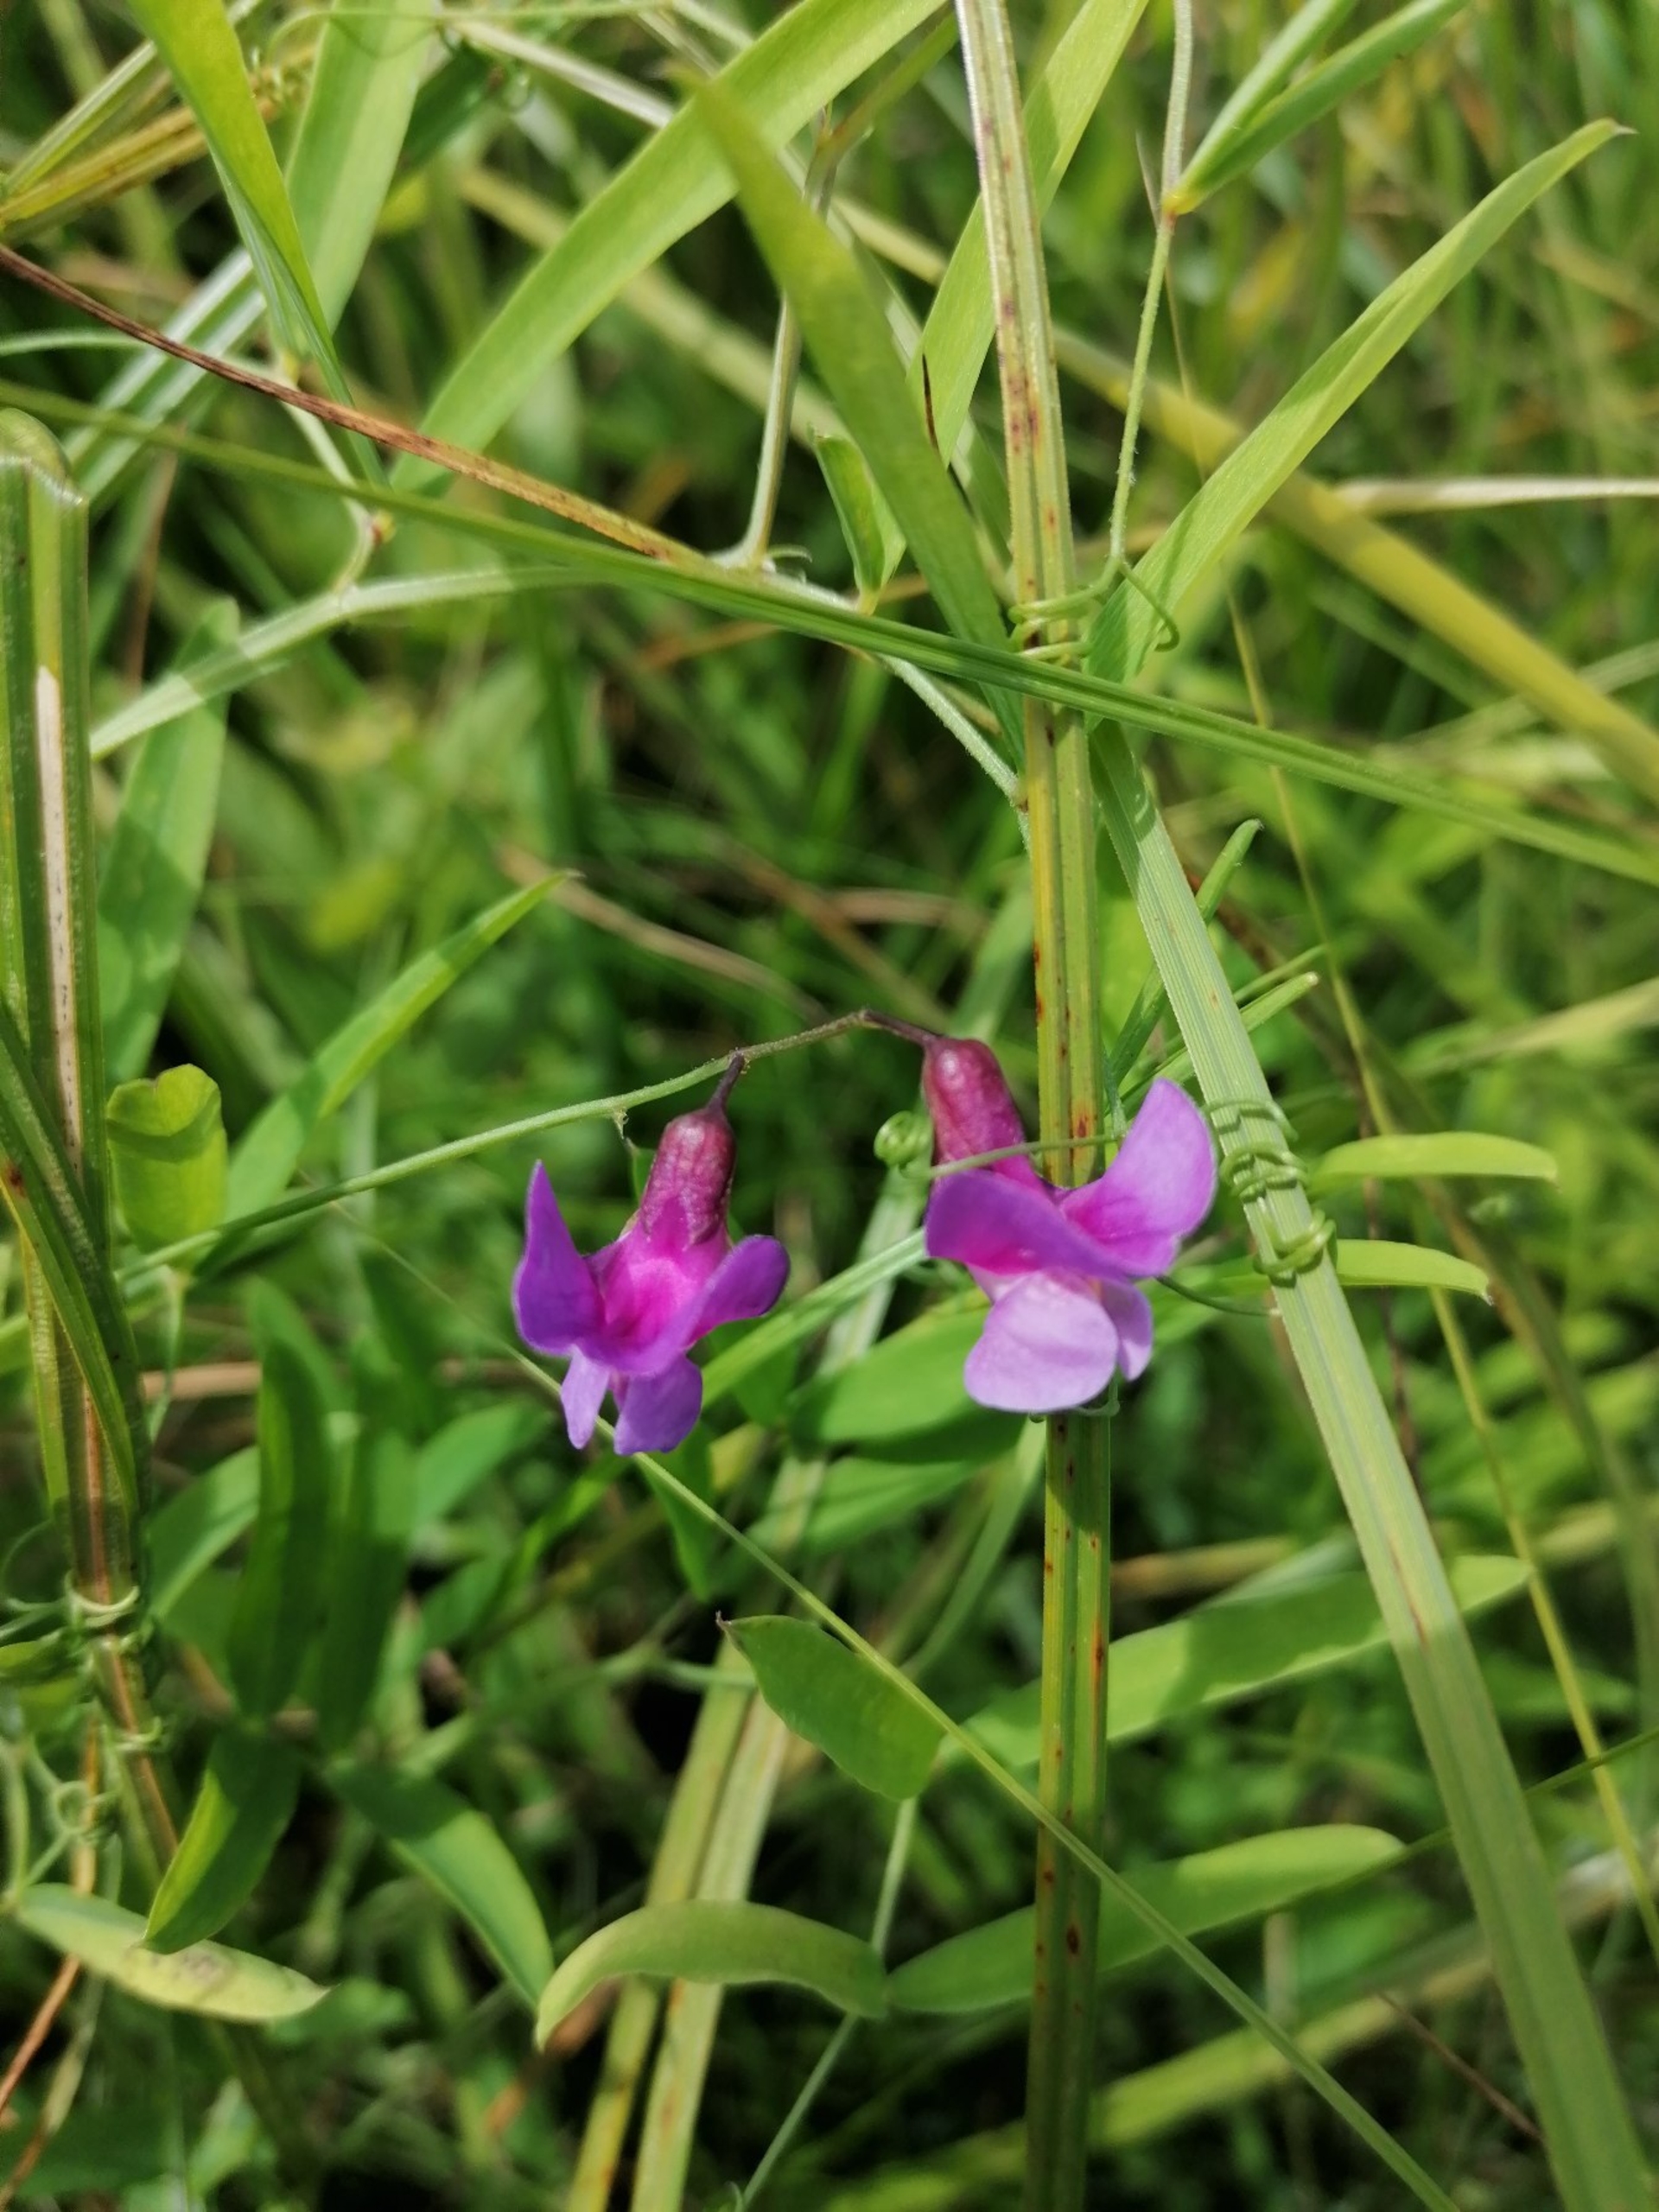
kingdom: Plantae
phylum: Tracheophyta
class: Magnoliopsida
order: Fabales
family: Fabaceae
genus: Lathyrus
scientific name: Lathyrus palustris
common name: Kær-fladbælg
